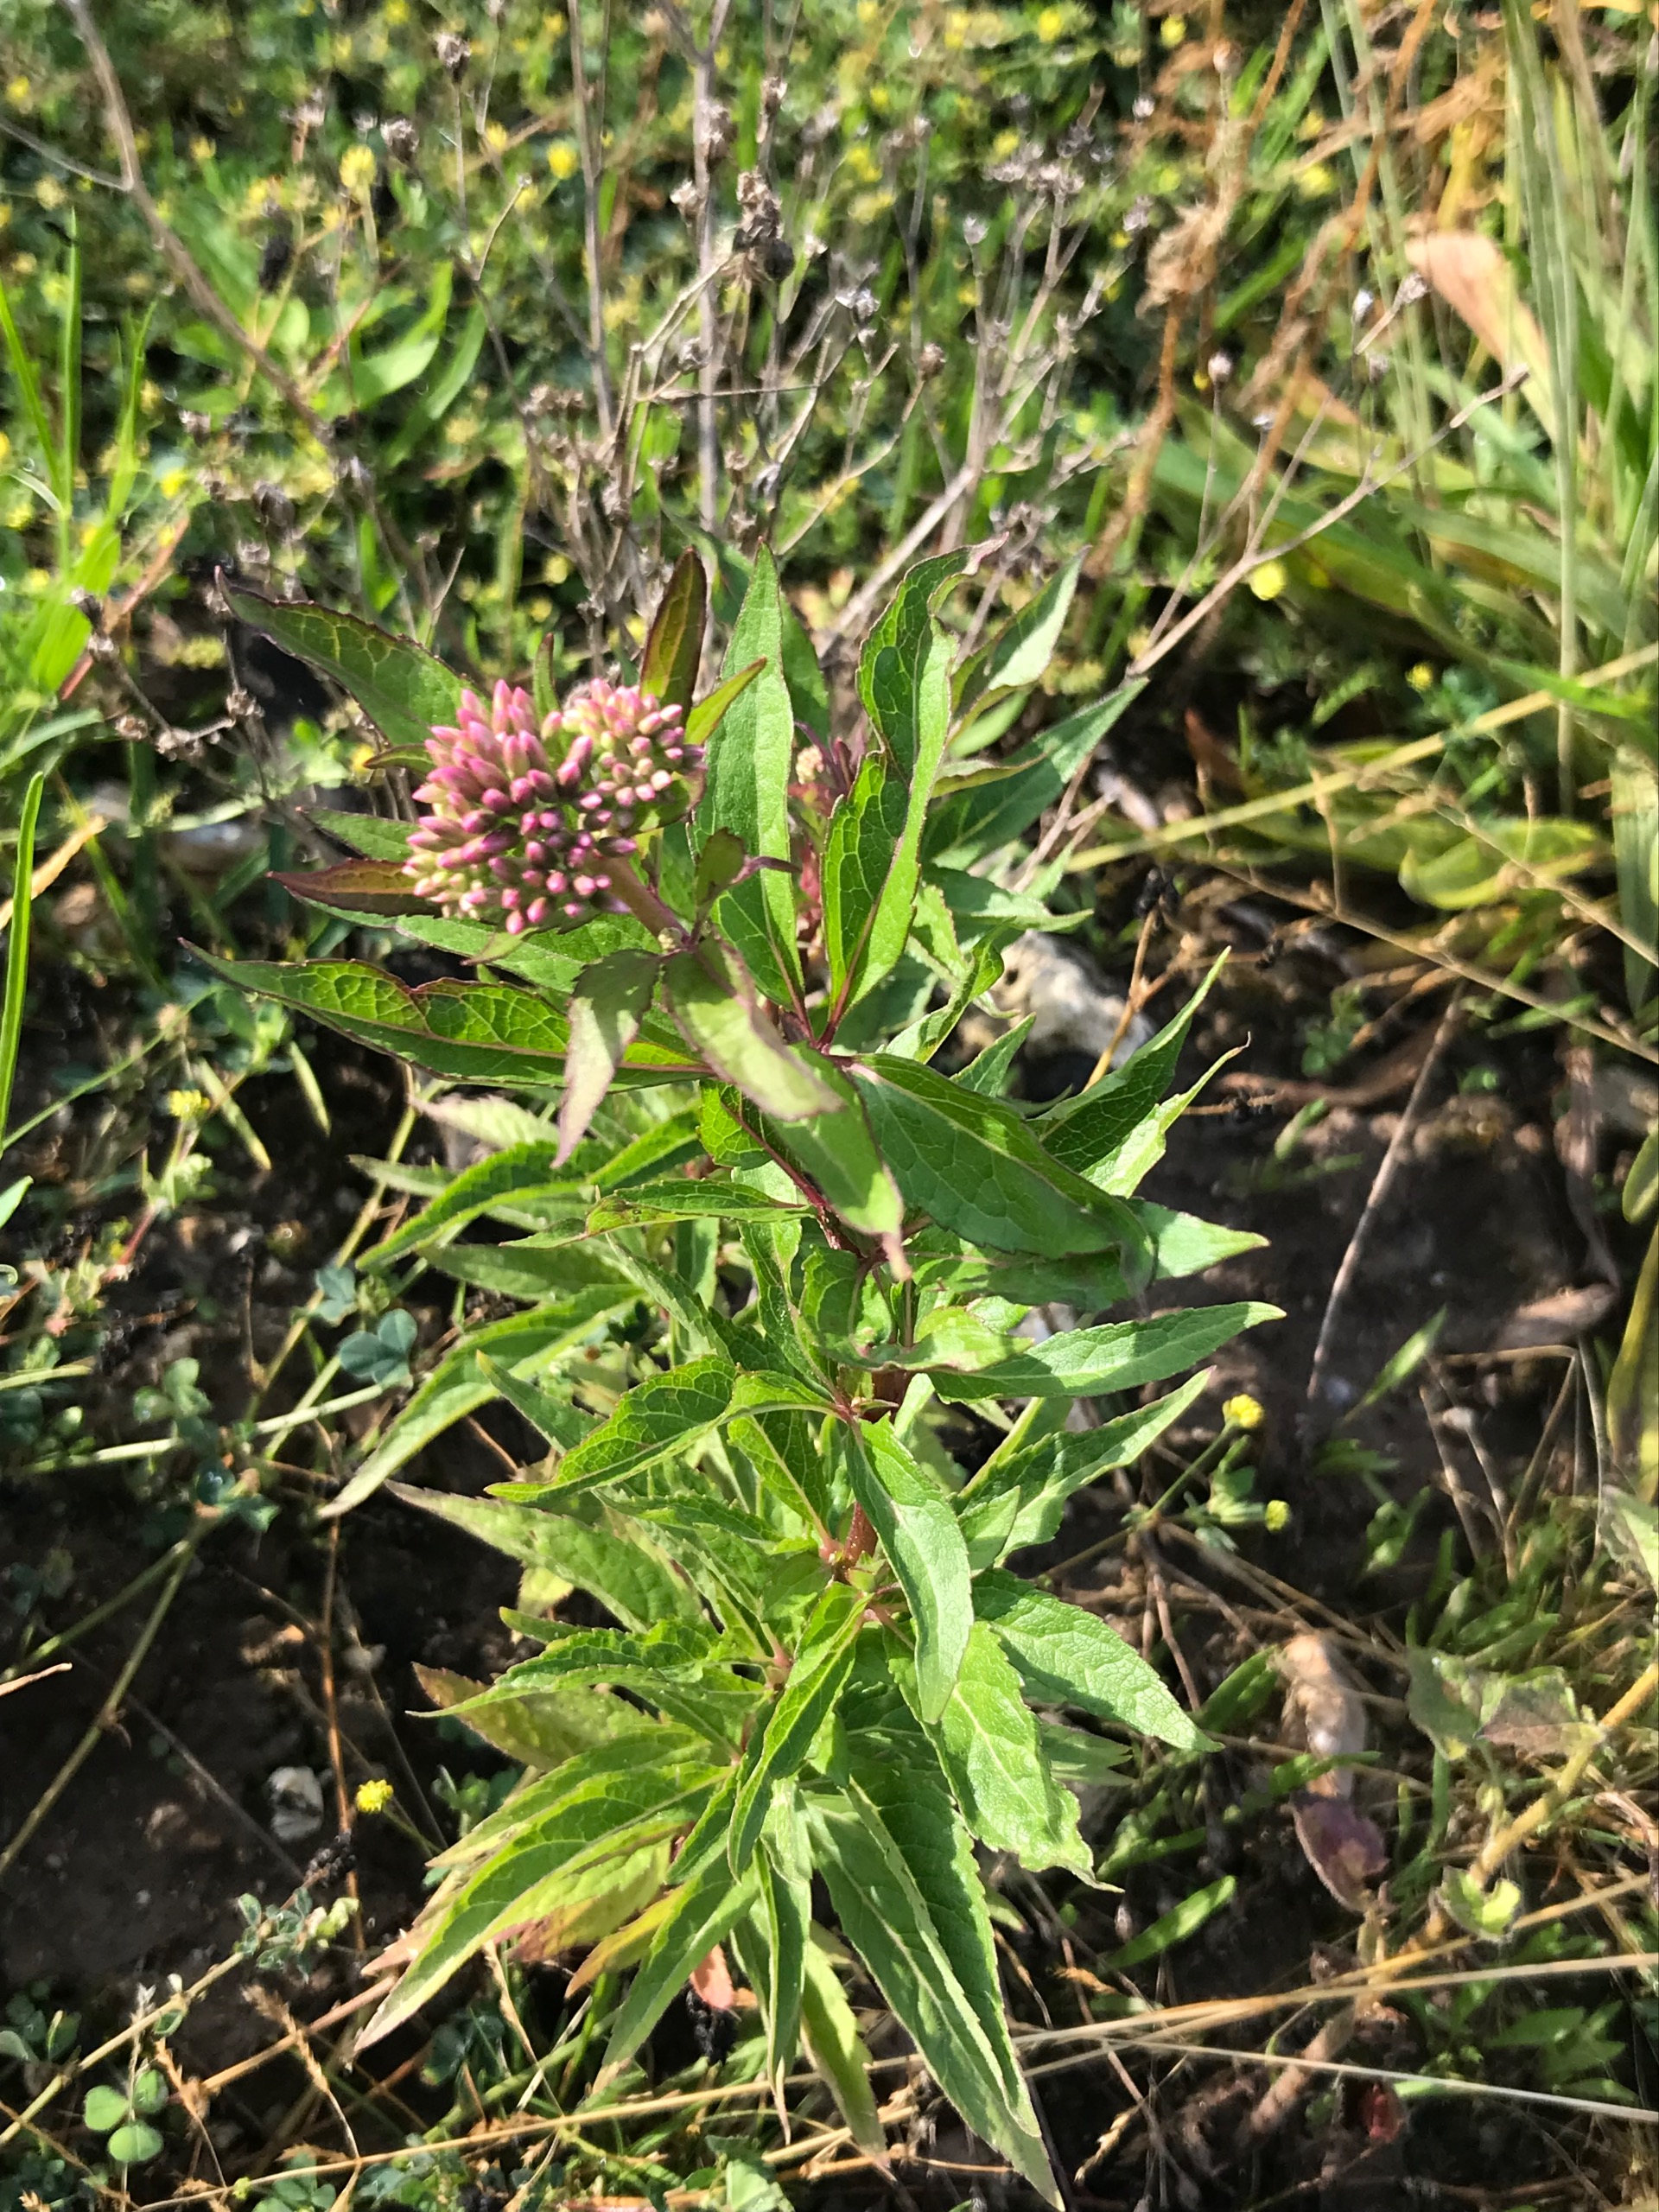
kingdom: Plantae
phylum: Tracheophyta
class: Magnoliopsida
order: Asterales
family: Asteraceae
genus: Eupatorium
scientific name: Eupatorium cannabinum
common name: Hjortetrøst
